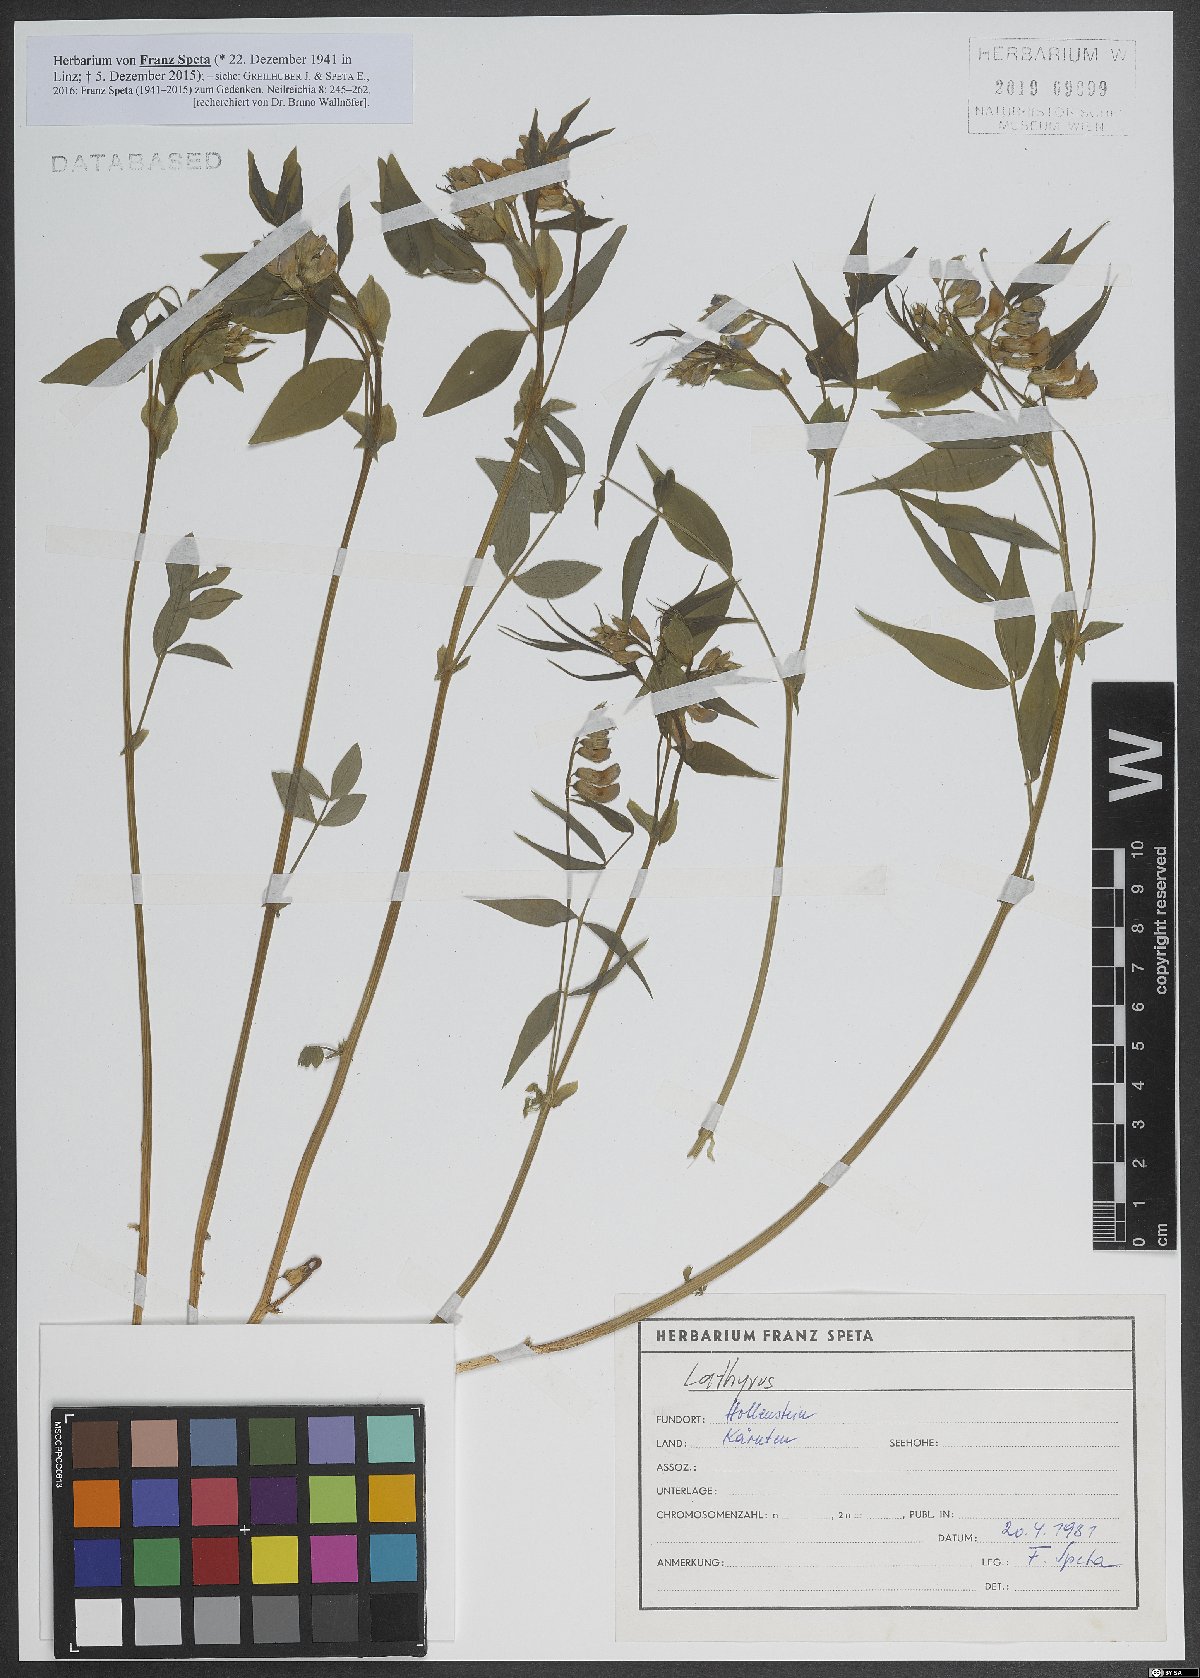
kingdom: Plantae
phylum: Tracheophyta
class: Magnoliopsida
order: Fabales
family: Fabaceae
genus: Lathyrus
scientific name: Lathyrus
